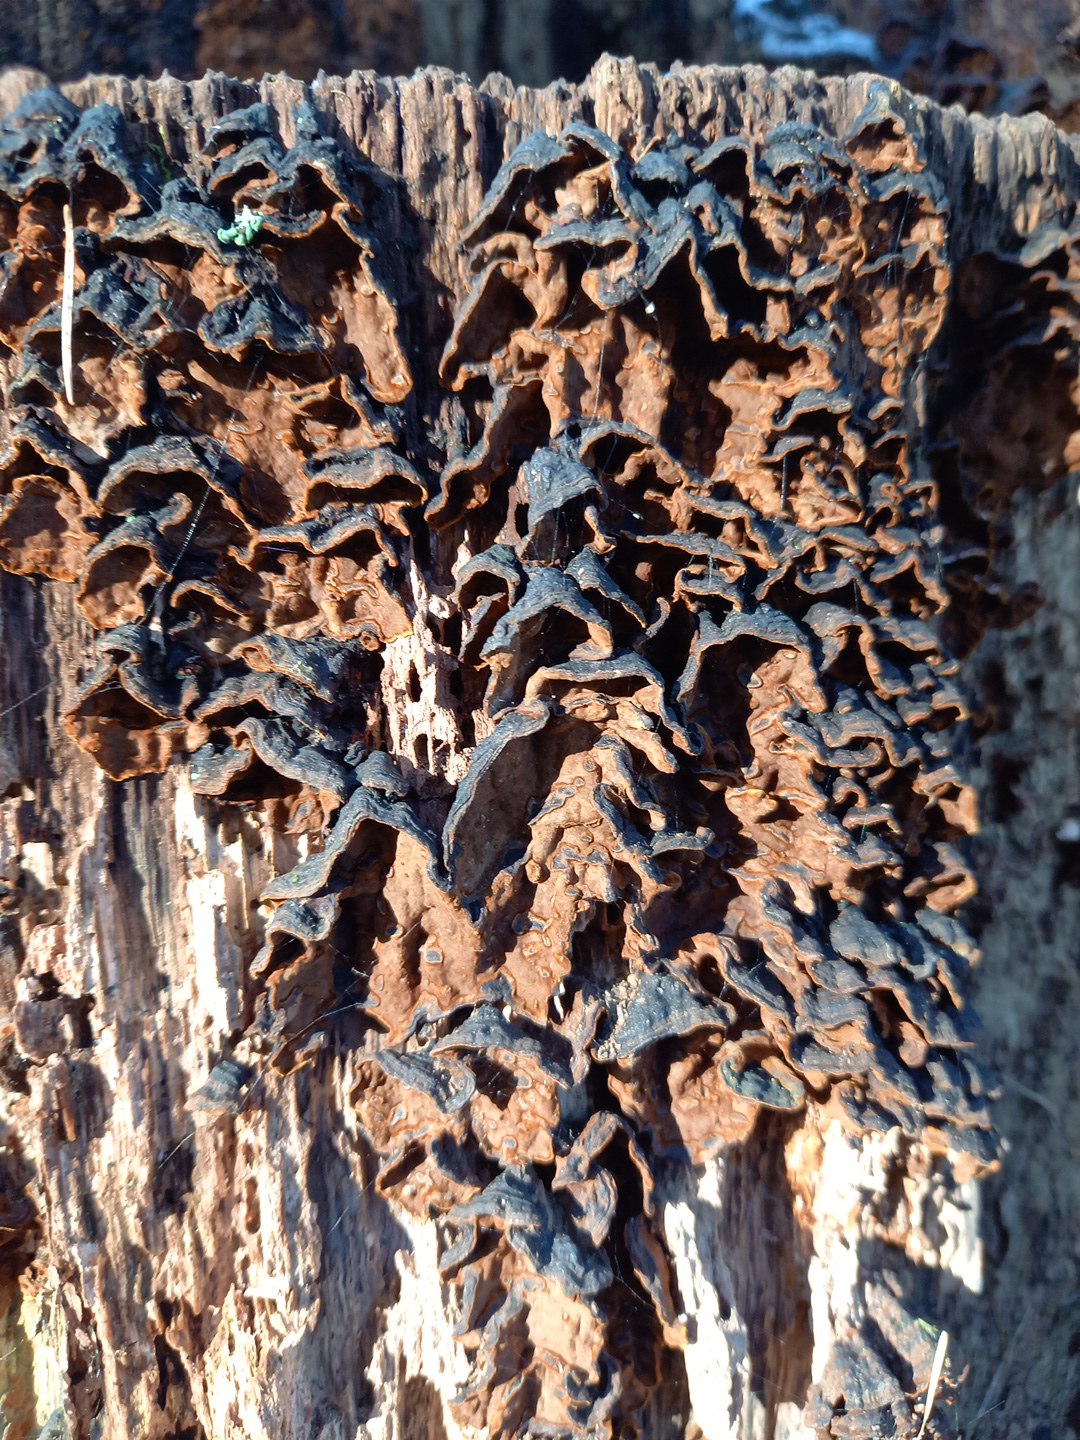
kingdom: Fungi
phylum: Basidiomycota
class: Agaricomycetes
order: Hymenochaetales
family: Hymenochaetaceae
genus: Hymenochaete
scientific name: Hymenochaete rubiginosa
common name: stiv ruslædersvamp
